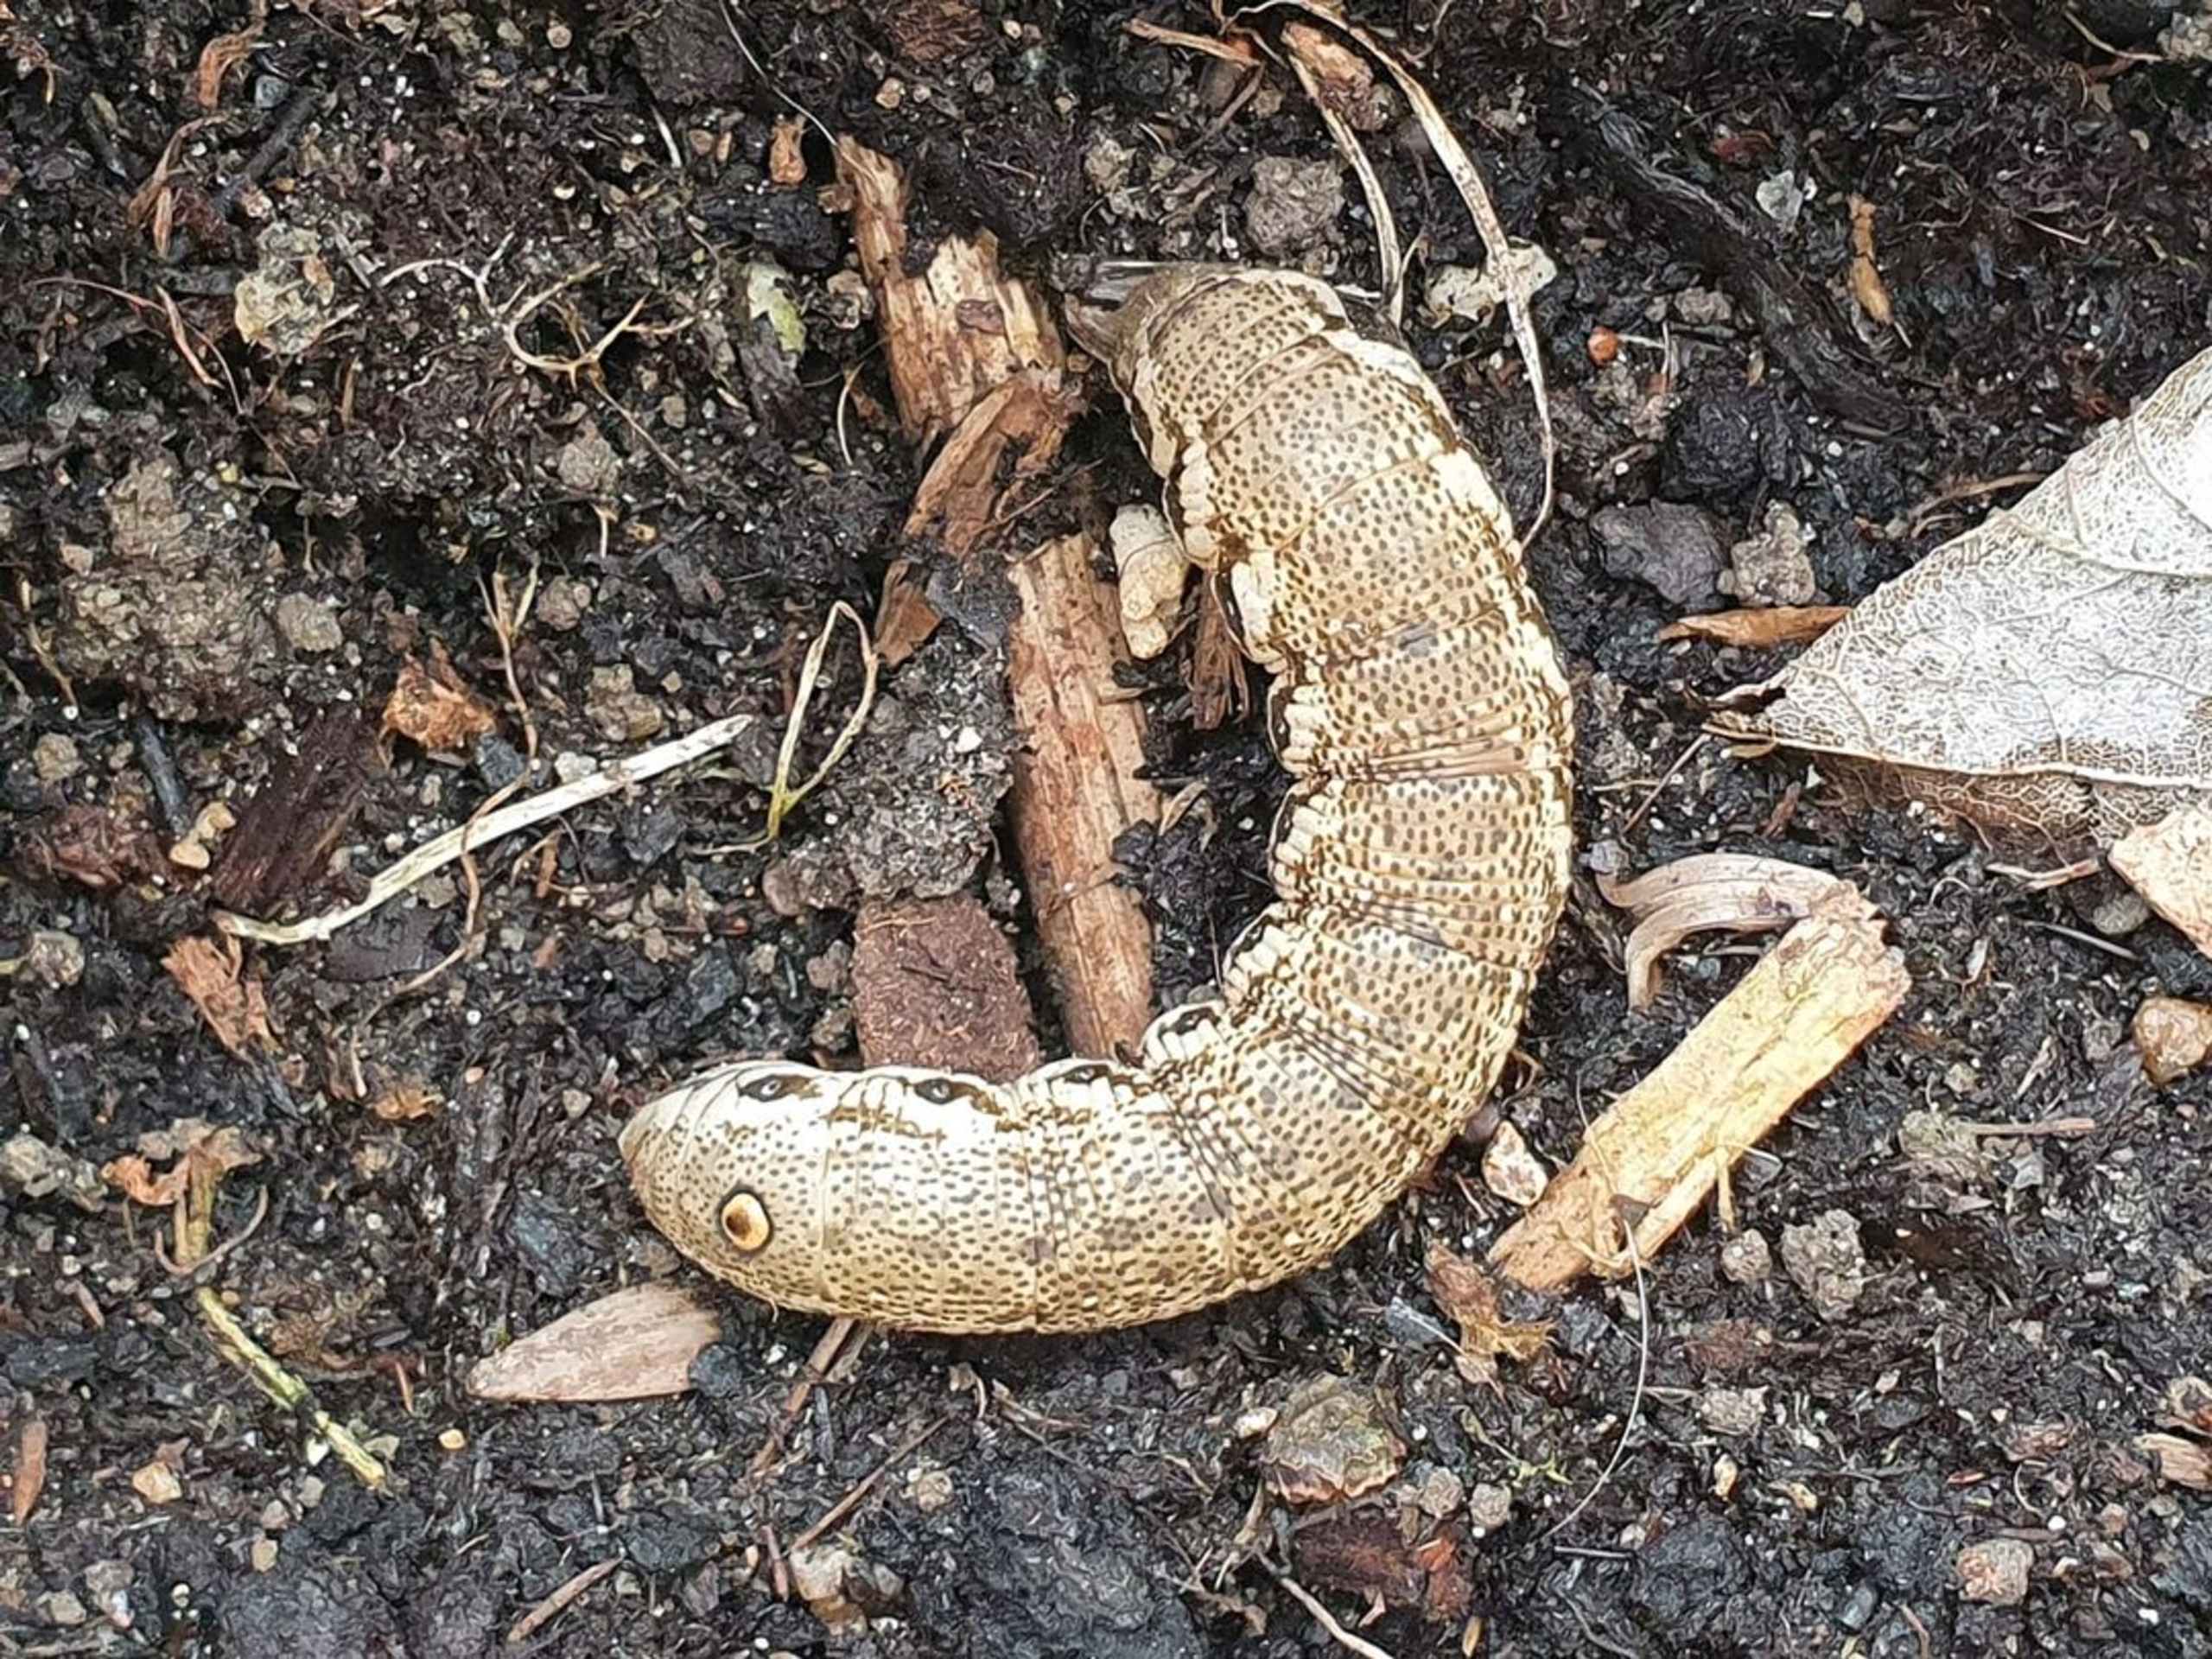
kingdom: Animalia
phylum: Arthropoda
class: Insecta
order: Lepidoptera
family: Sphingidae
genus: Proserpinus
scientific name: Proserpinus proserpina
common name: Natlyssværmer
